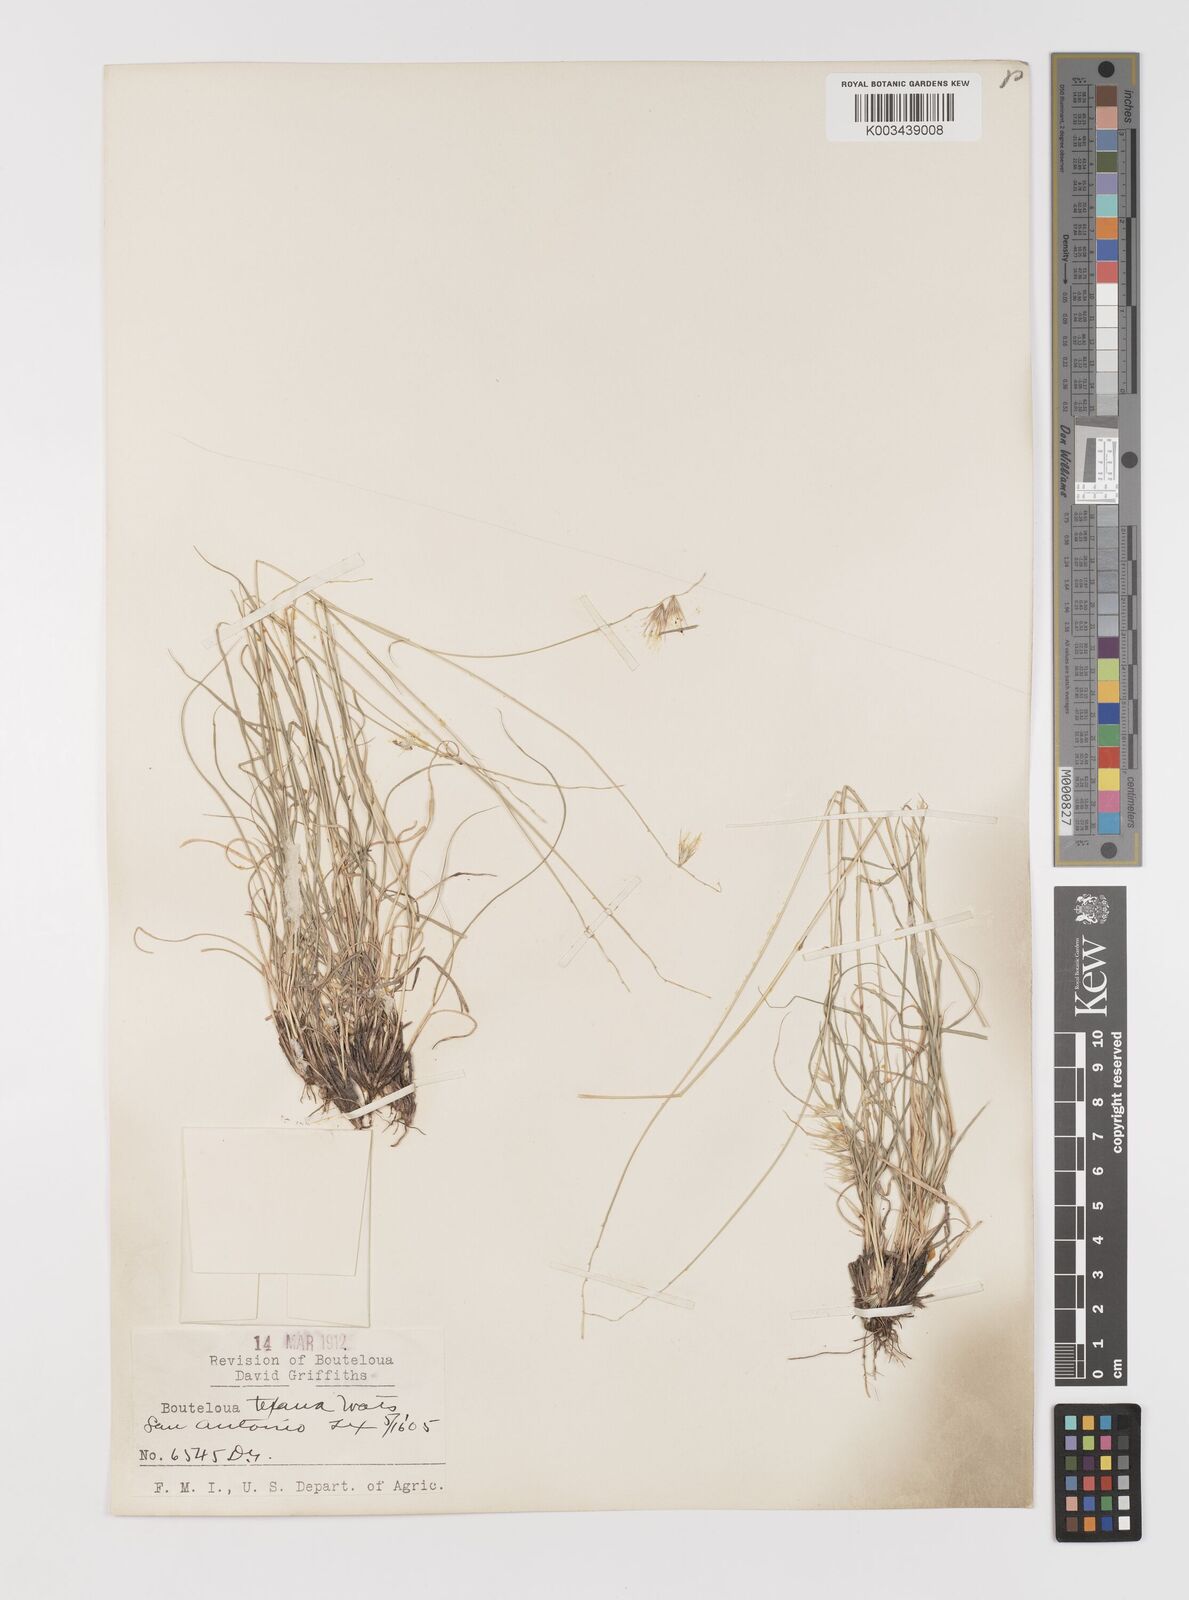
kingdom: Plantae
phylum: Tracheophyta
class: Liliopsida
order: Poales
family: Poaceae
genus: Bouteloua
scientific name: Bouteloua rigidiseta
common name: Texas grama
